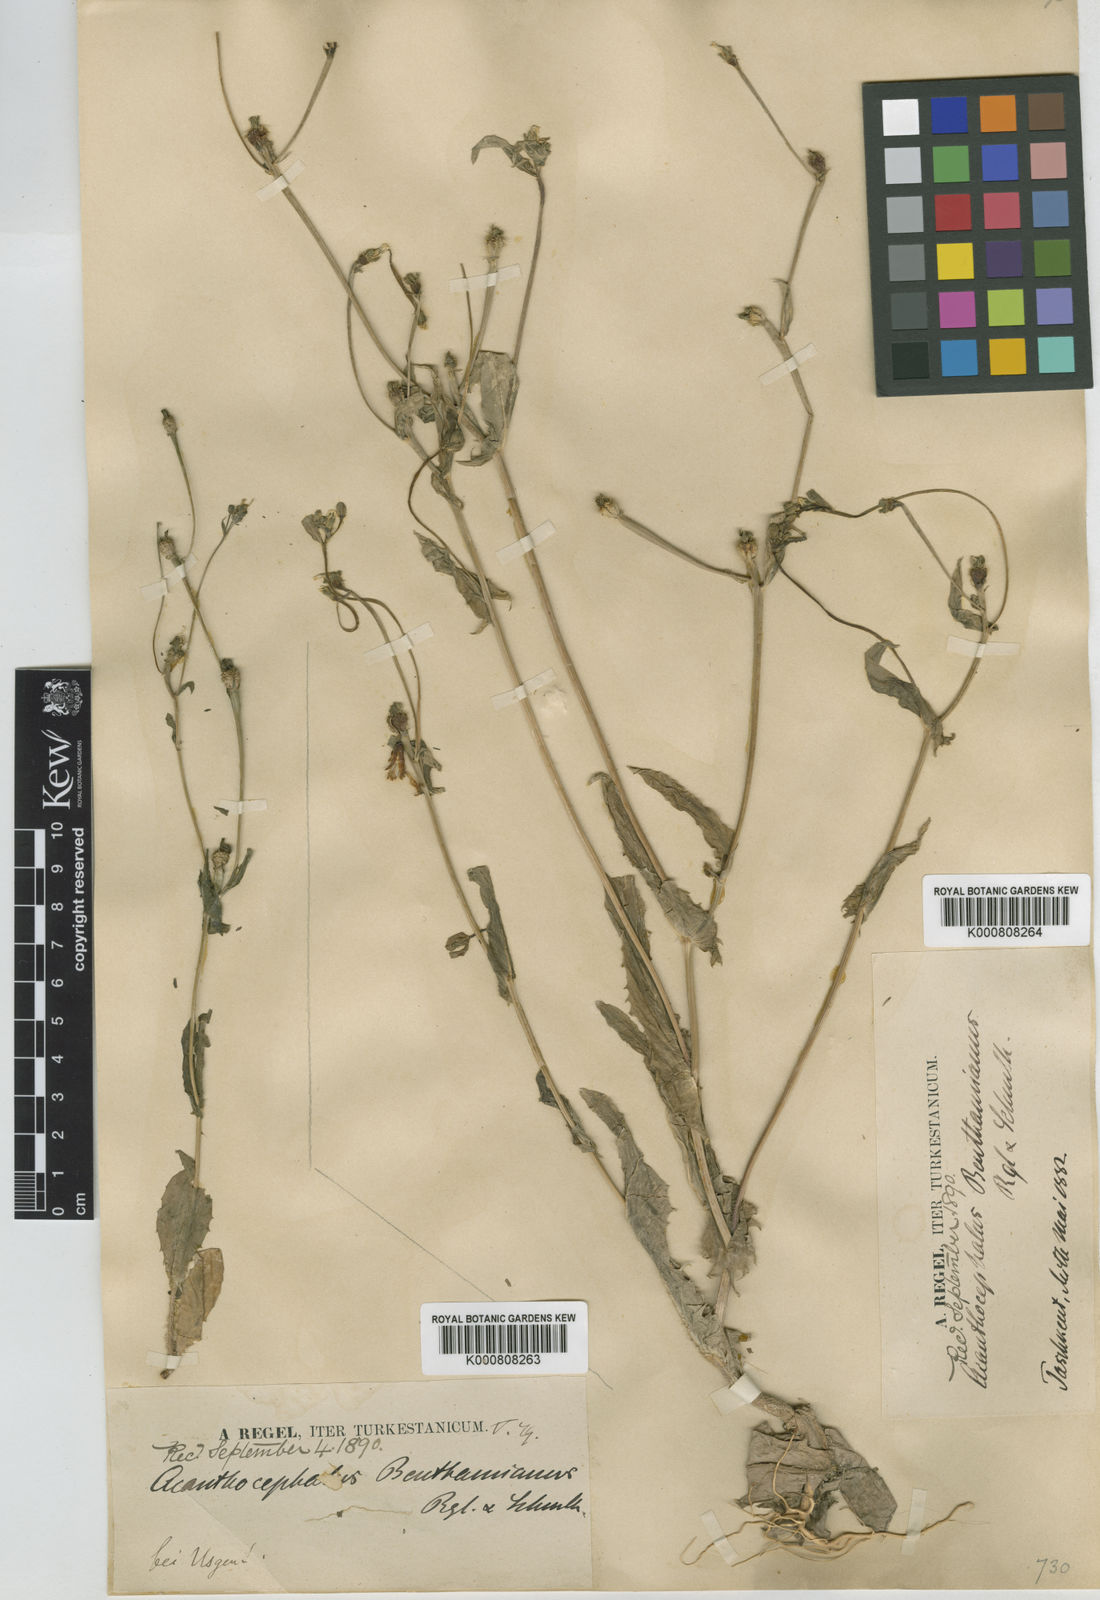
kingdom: Plantae
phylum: Tracheophyta
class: Magnoliopsida
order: Asterales
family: Asteraceae
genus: Acanthocephalus
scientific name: Acanthocephalus benthamianus
